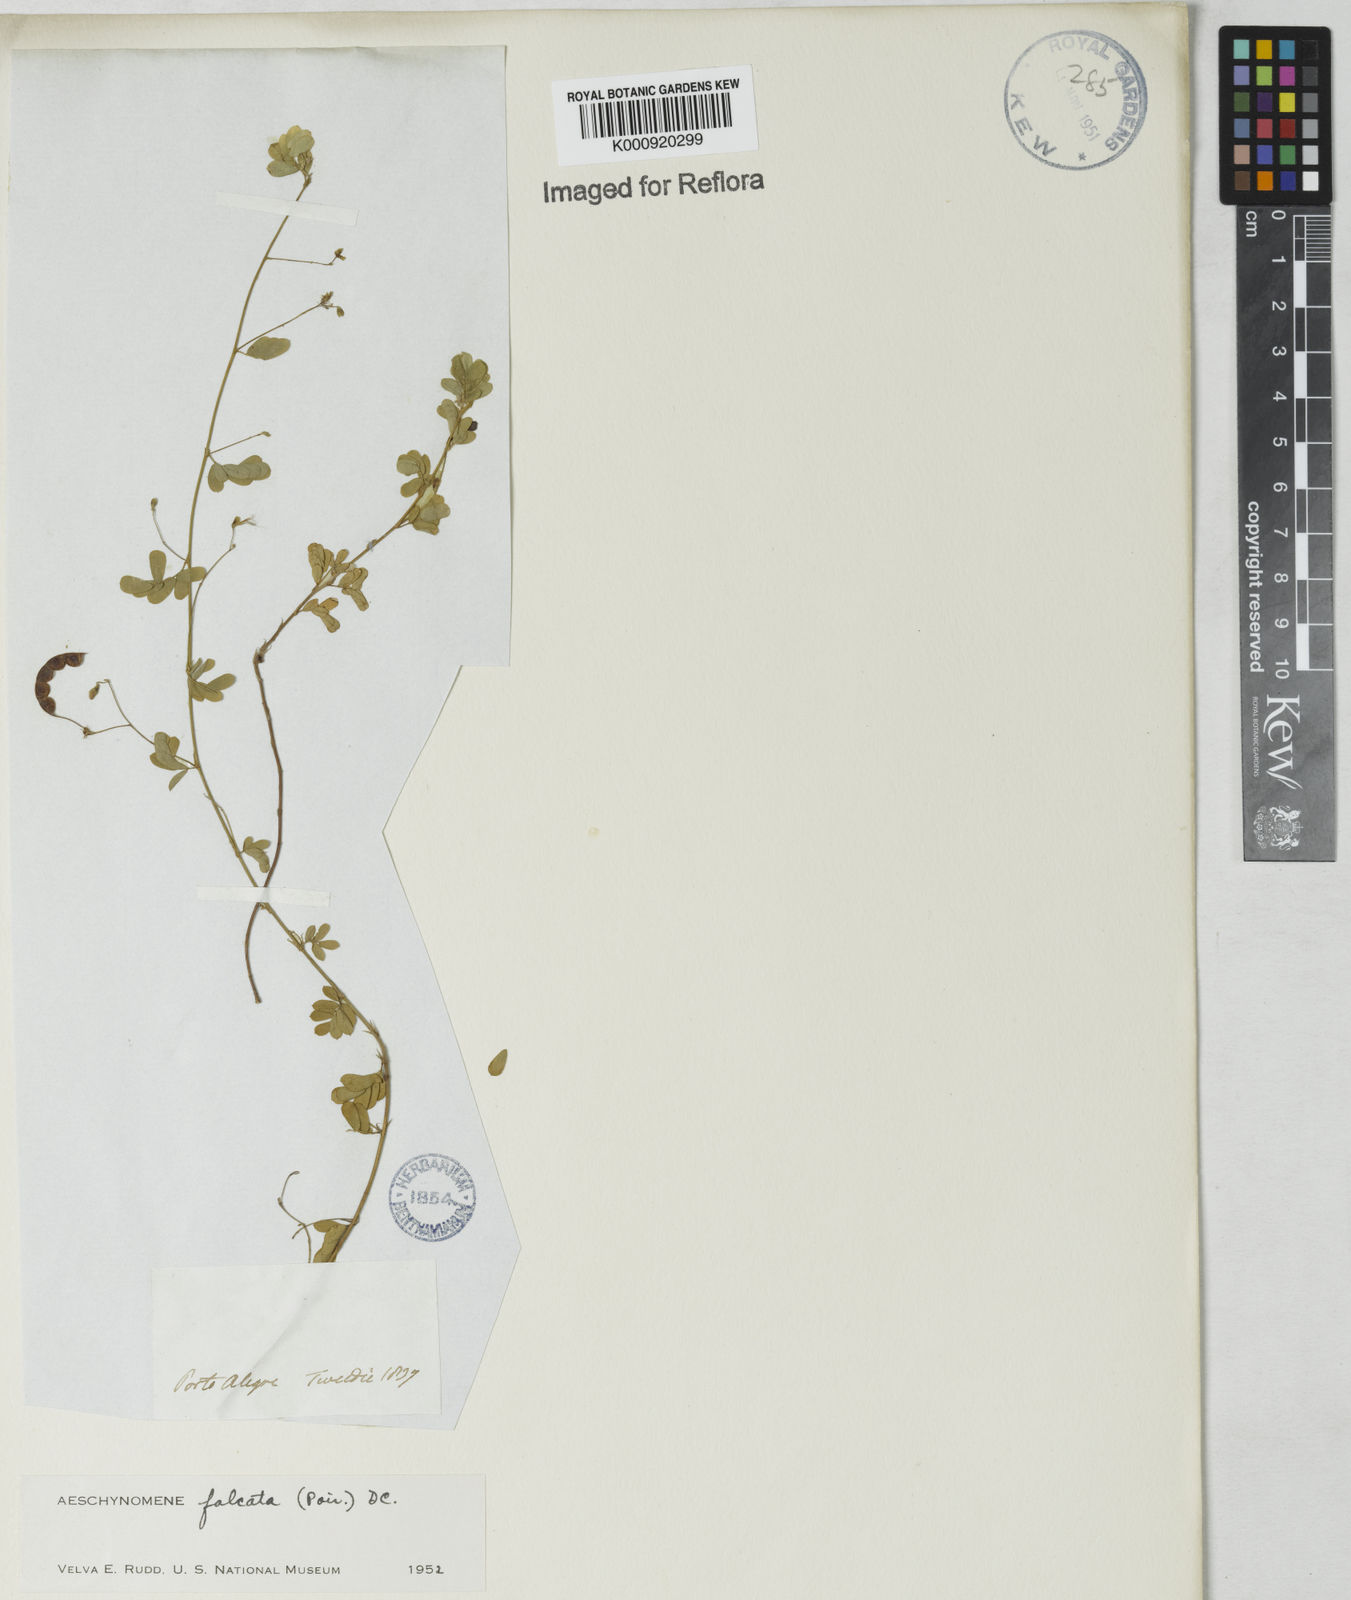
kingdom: Plantae
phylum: Tracheophyta
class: Magnoliopsida
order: Fabales
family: Fabaceae
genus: Aeschynomene
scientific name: Aeschynomene
